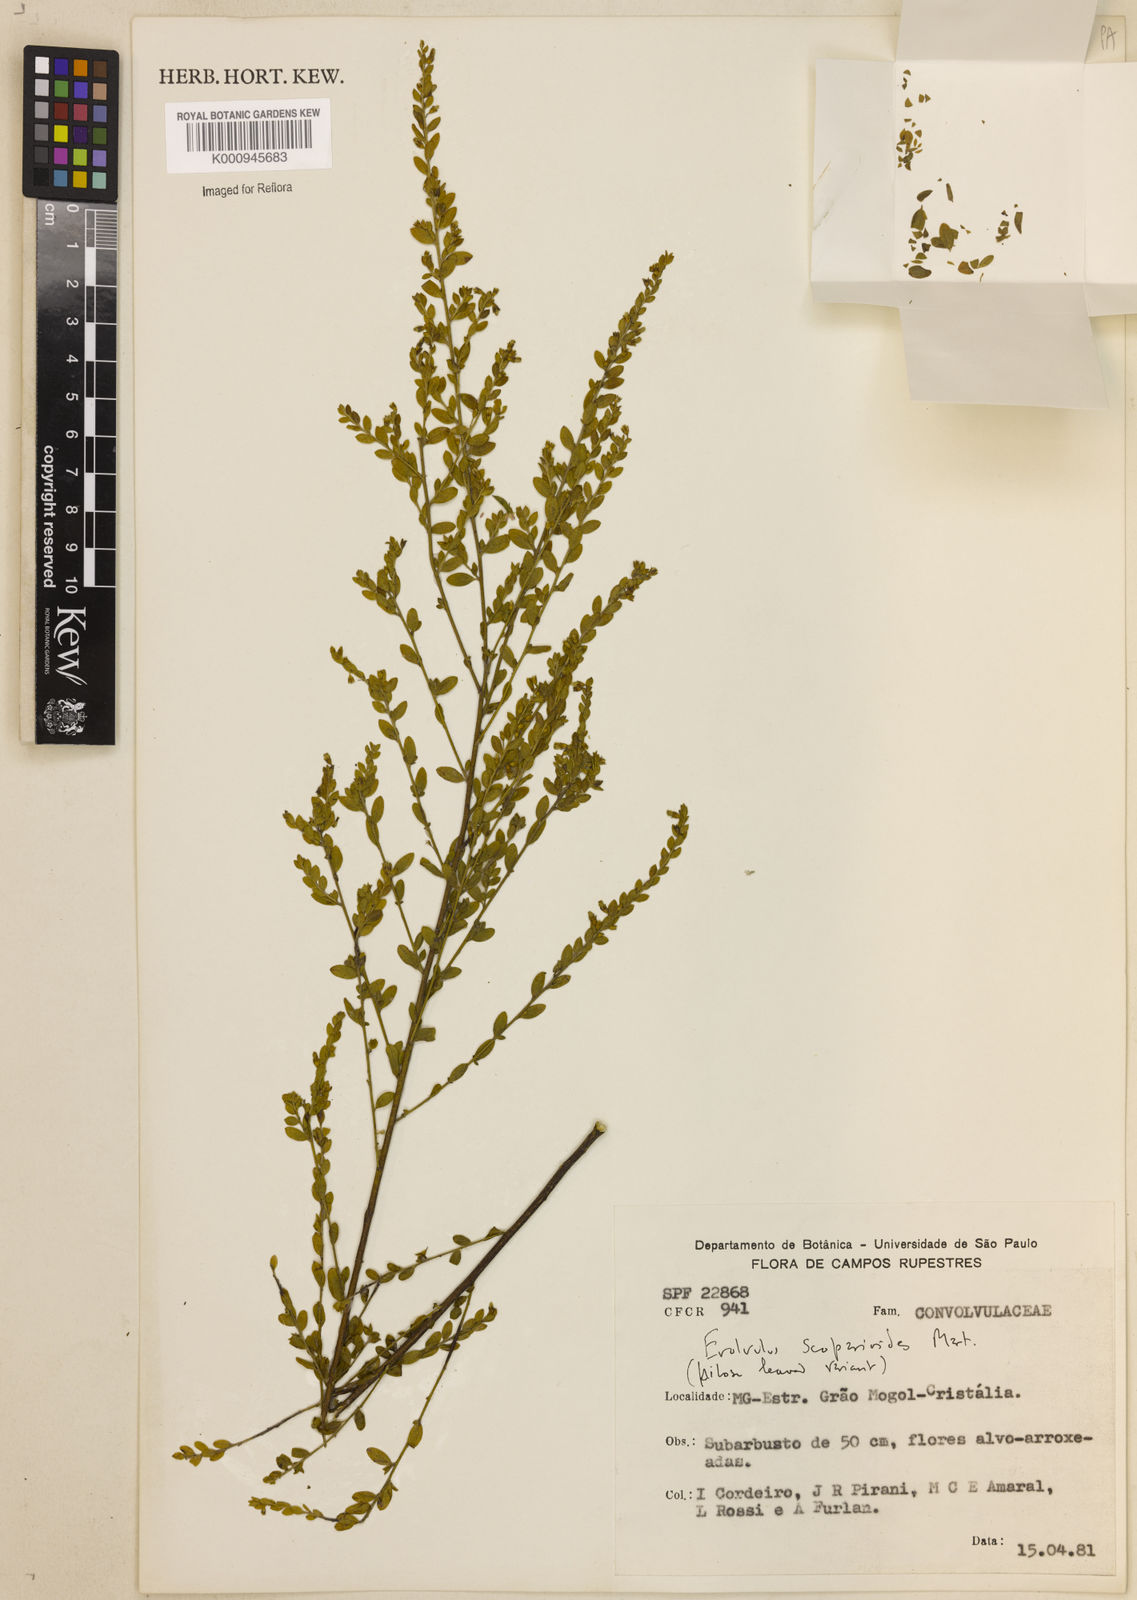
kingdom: Plantae
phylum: Tracheophyta
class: Magnoliopsida
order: Solanales
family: Convolvulaceae
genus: Evolvulus
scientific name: Evolvulus scoparioides
